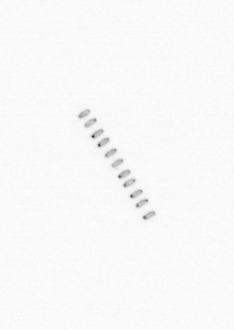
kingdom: Chromista
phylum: Ochrophyta
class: Bacillariophyceae
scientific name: Bacillariophyceae
